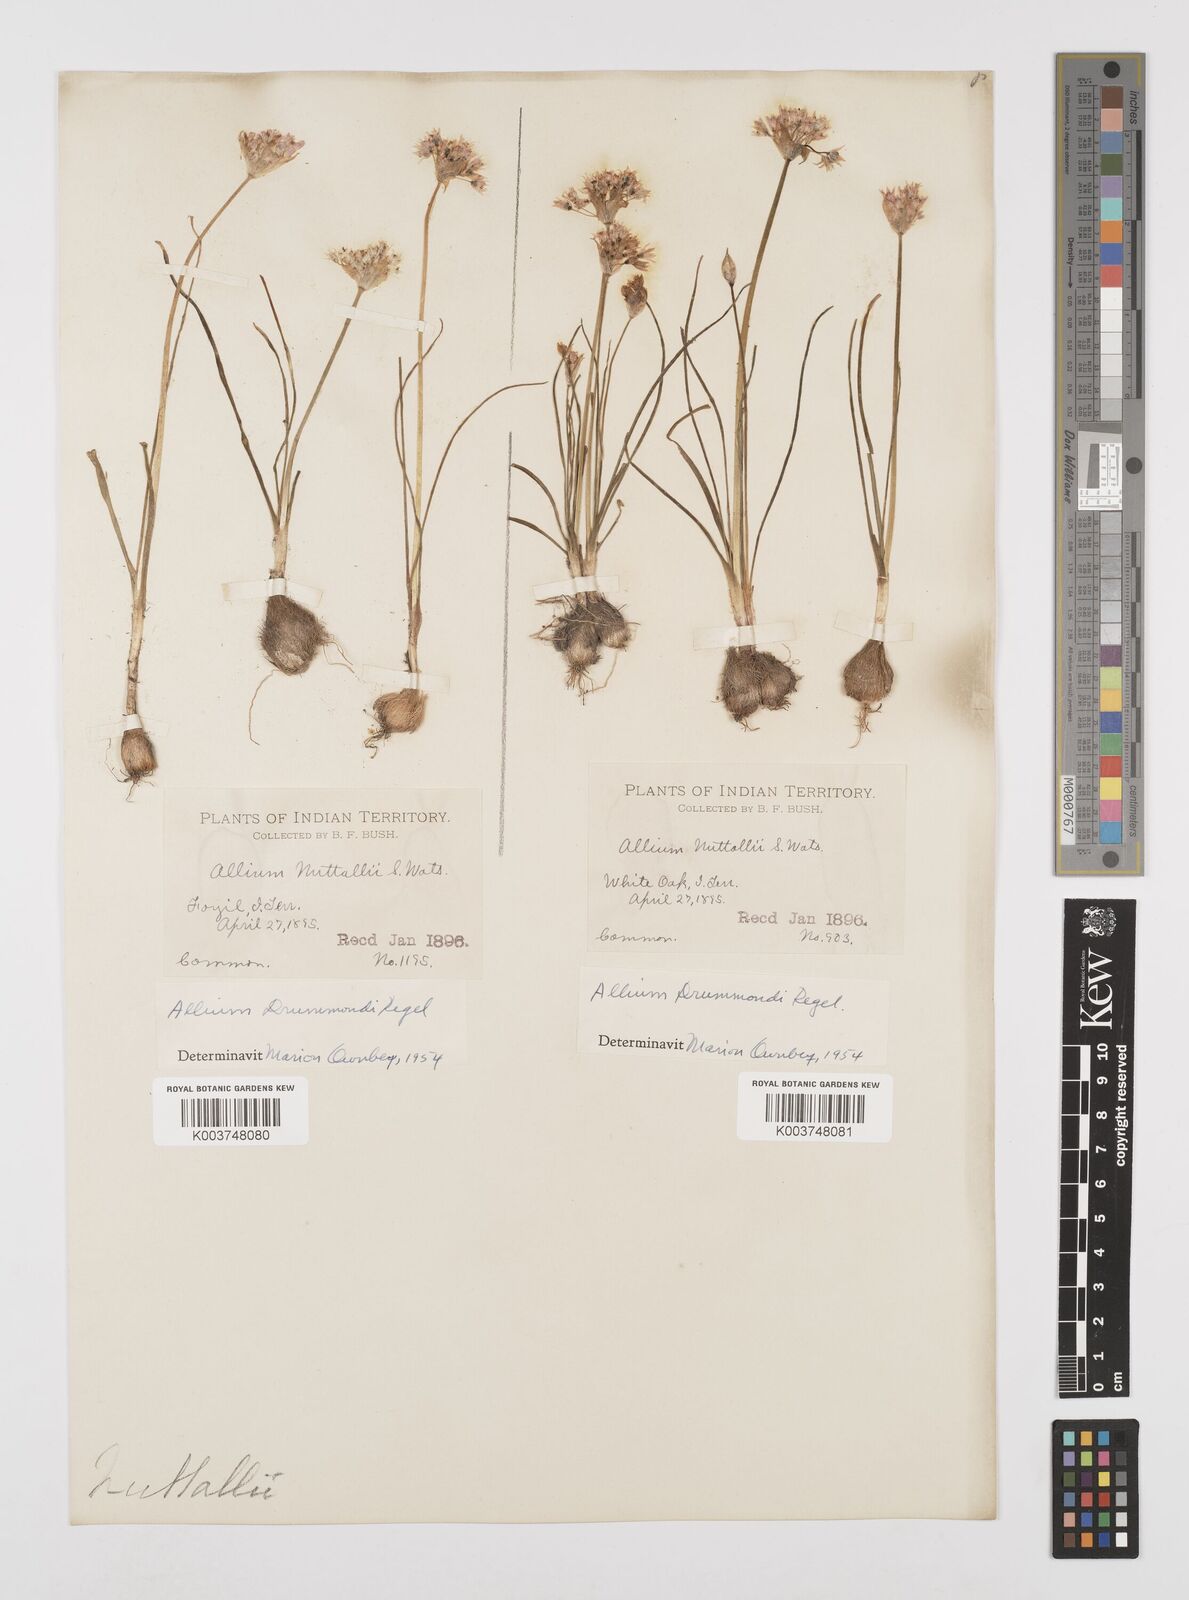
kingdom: Plantae
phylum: Tracheophyta
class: Liliopsida
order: Asparagales
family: Amaryllidaceae
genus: Allium
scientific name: Allium drummondii
